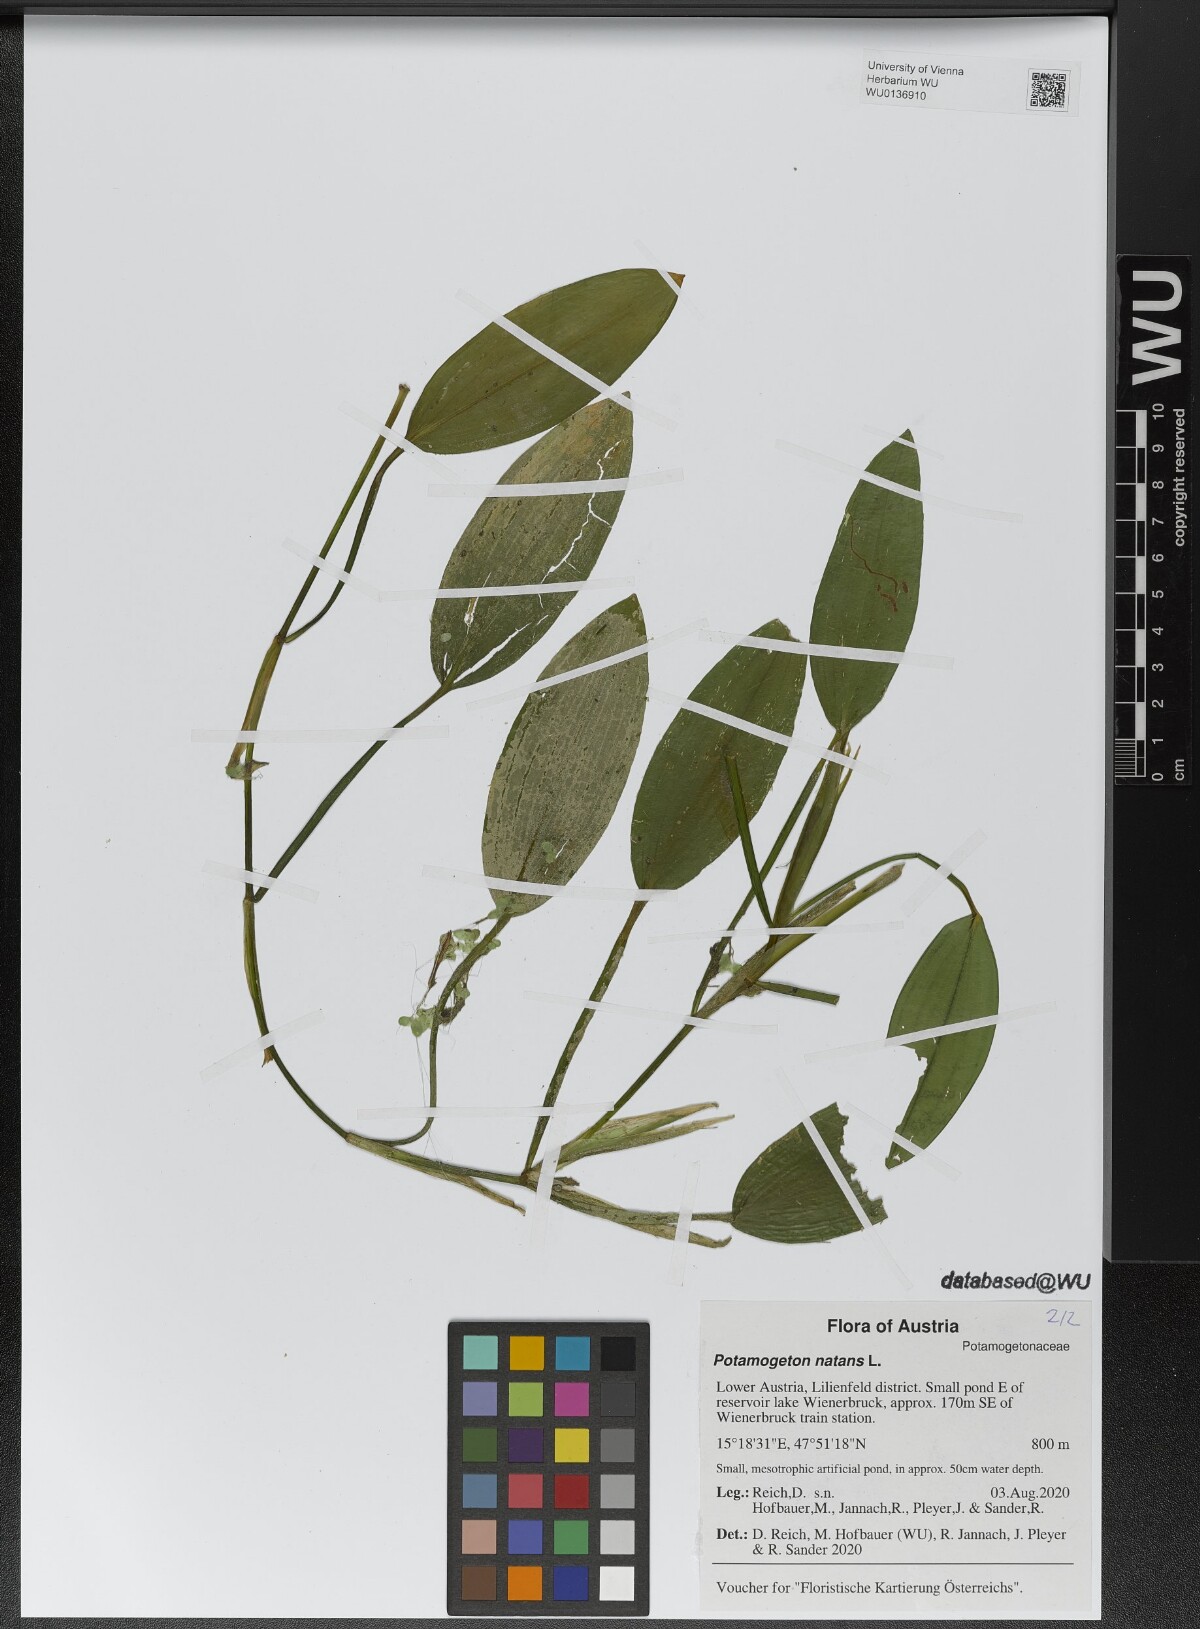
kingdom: Plantae
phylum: Tracheophyta
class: Liliopsida
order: Alismatales
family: Potamogetonaceae
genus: Potamogeton
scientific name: Potamogeton natans
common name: Broad-leaved pondweed
